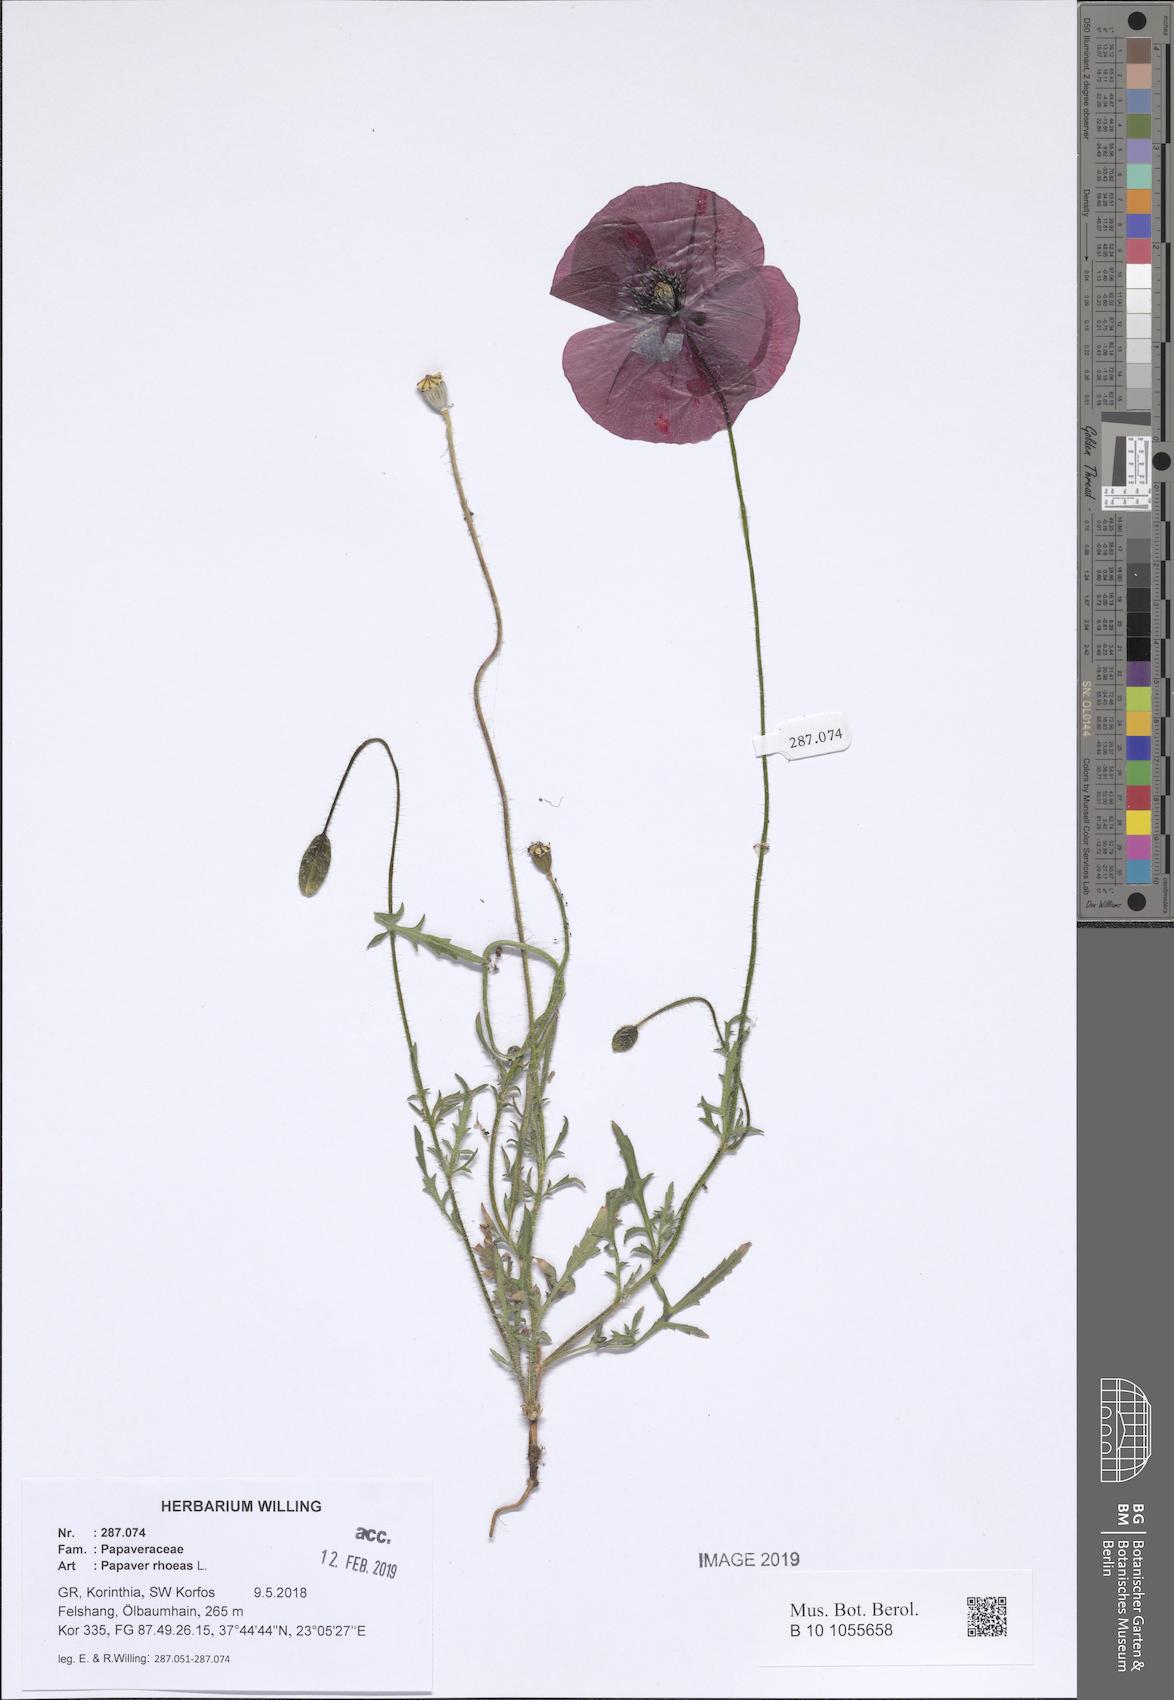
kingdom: Plantae
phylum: Tracheophyta
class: Magnoliopsida
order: Ranunculales
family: Papaveraceae
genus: Papaver
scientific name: Papaver rhoeas
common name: Corn poppy
